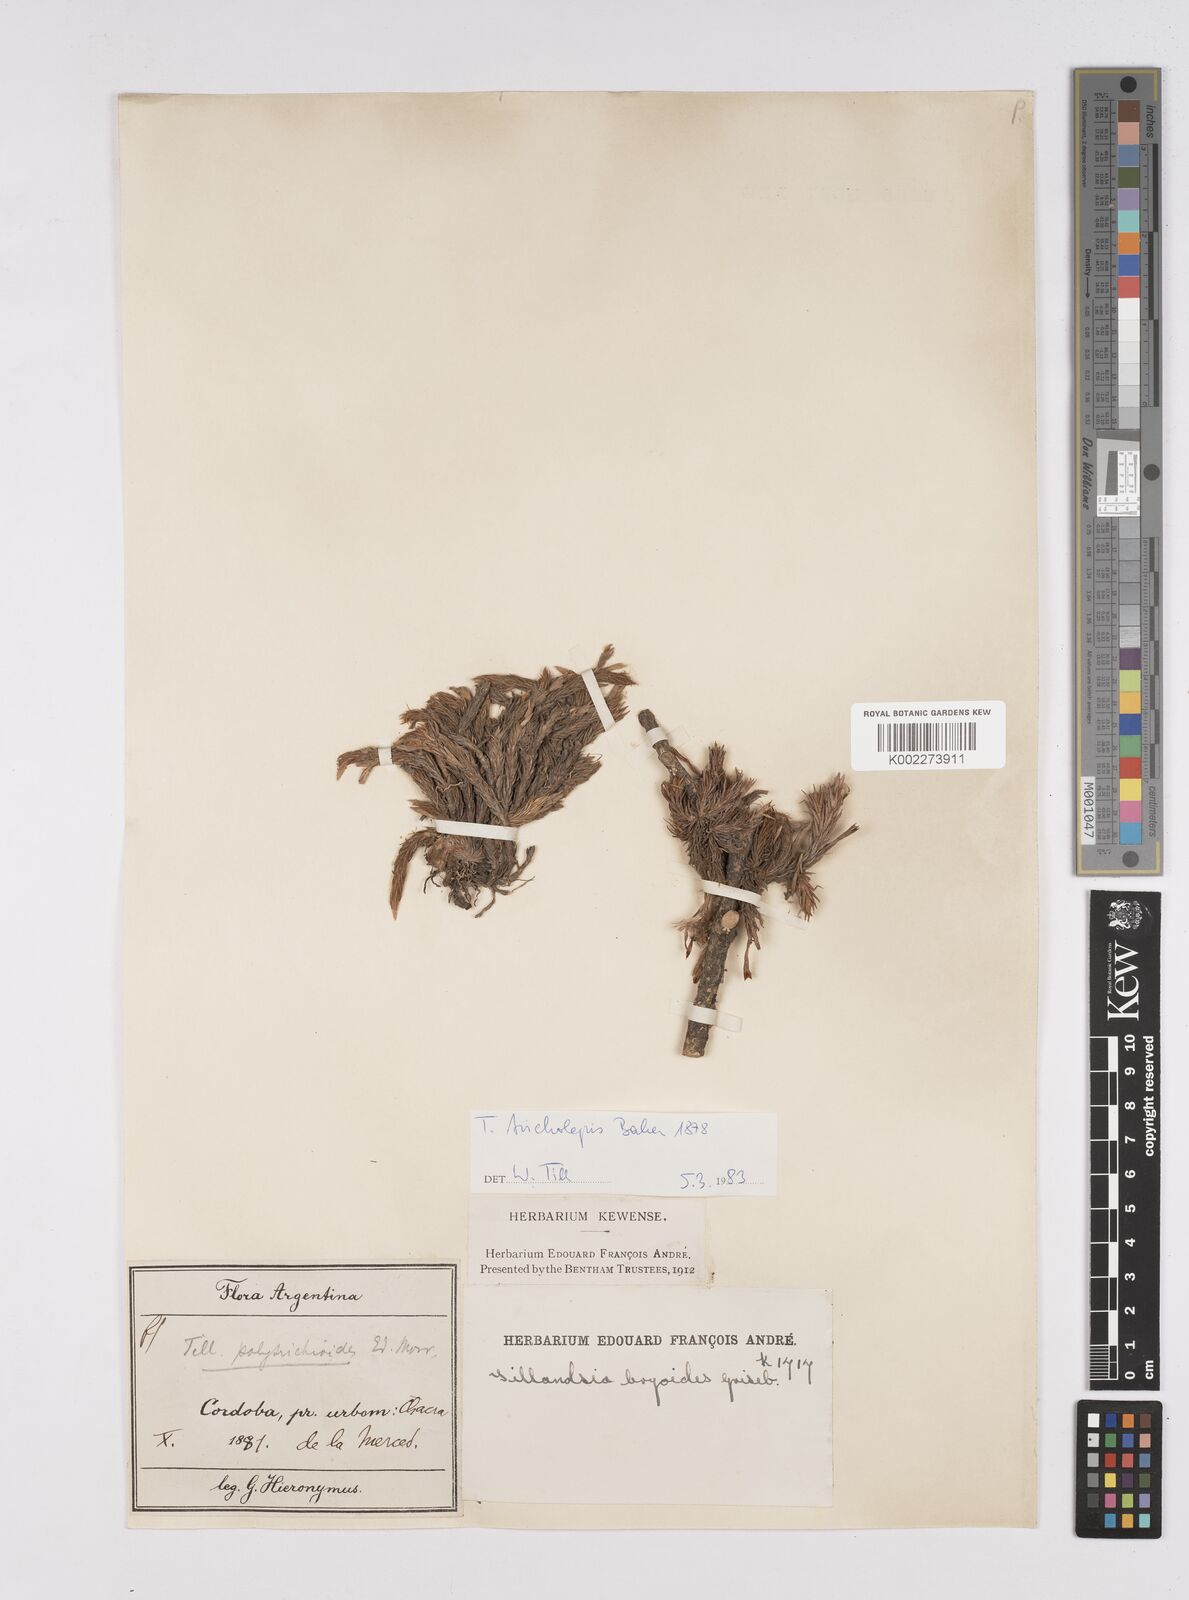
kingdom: Plantae
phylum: Tracheophyta
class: Liliopsida
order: Poales
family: Bromeliaceae
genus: Tillandsia
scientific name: Tillandsia tricholepis
